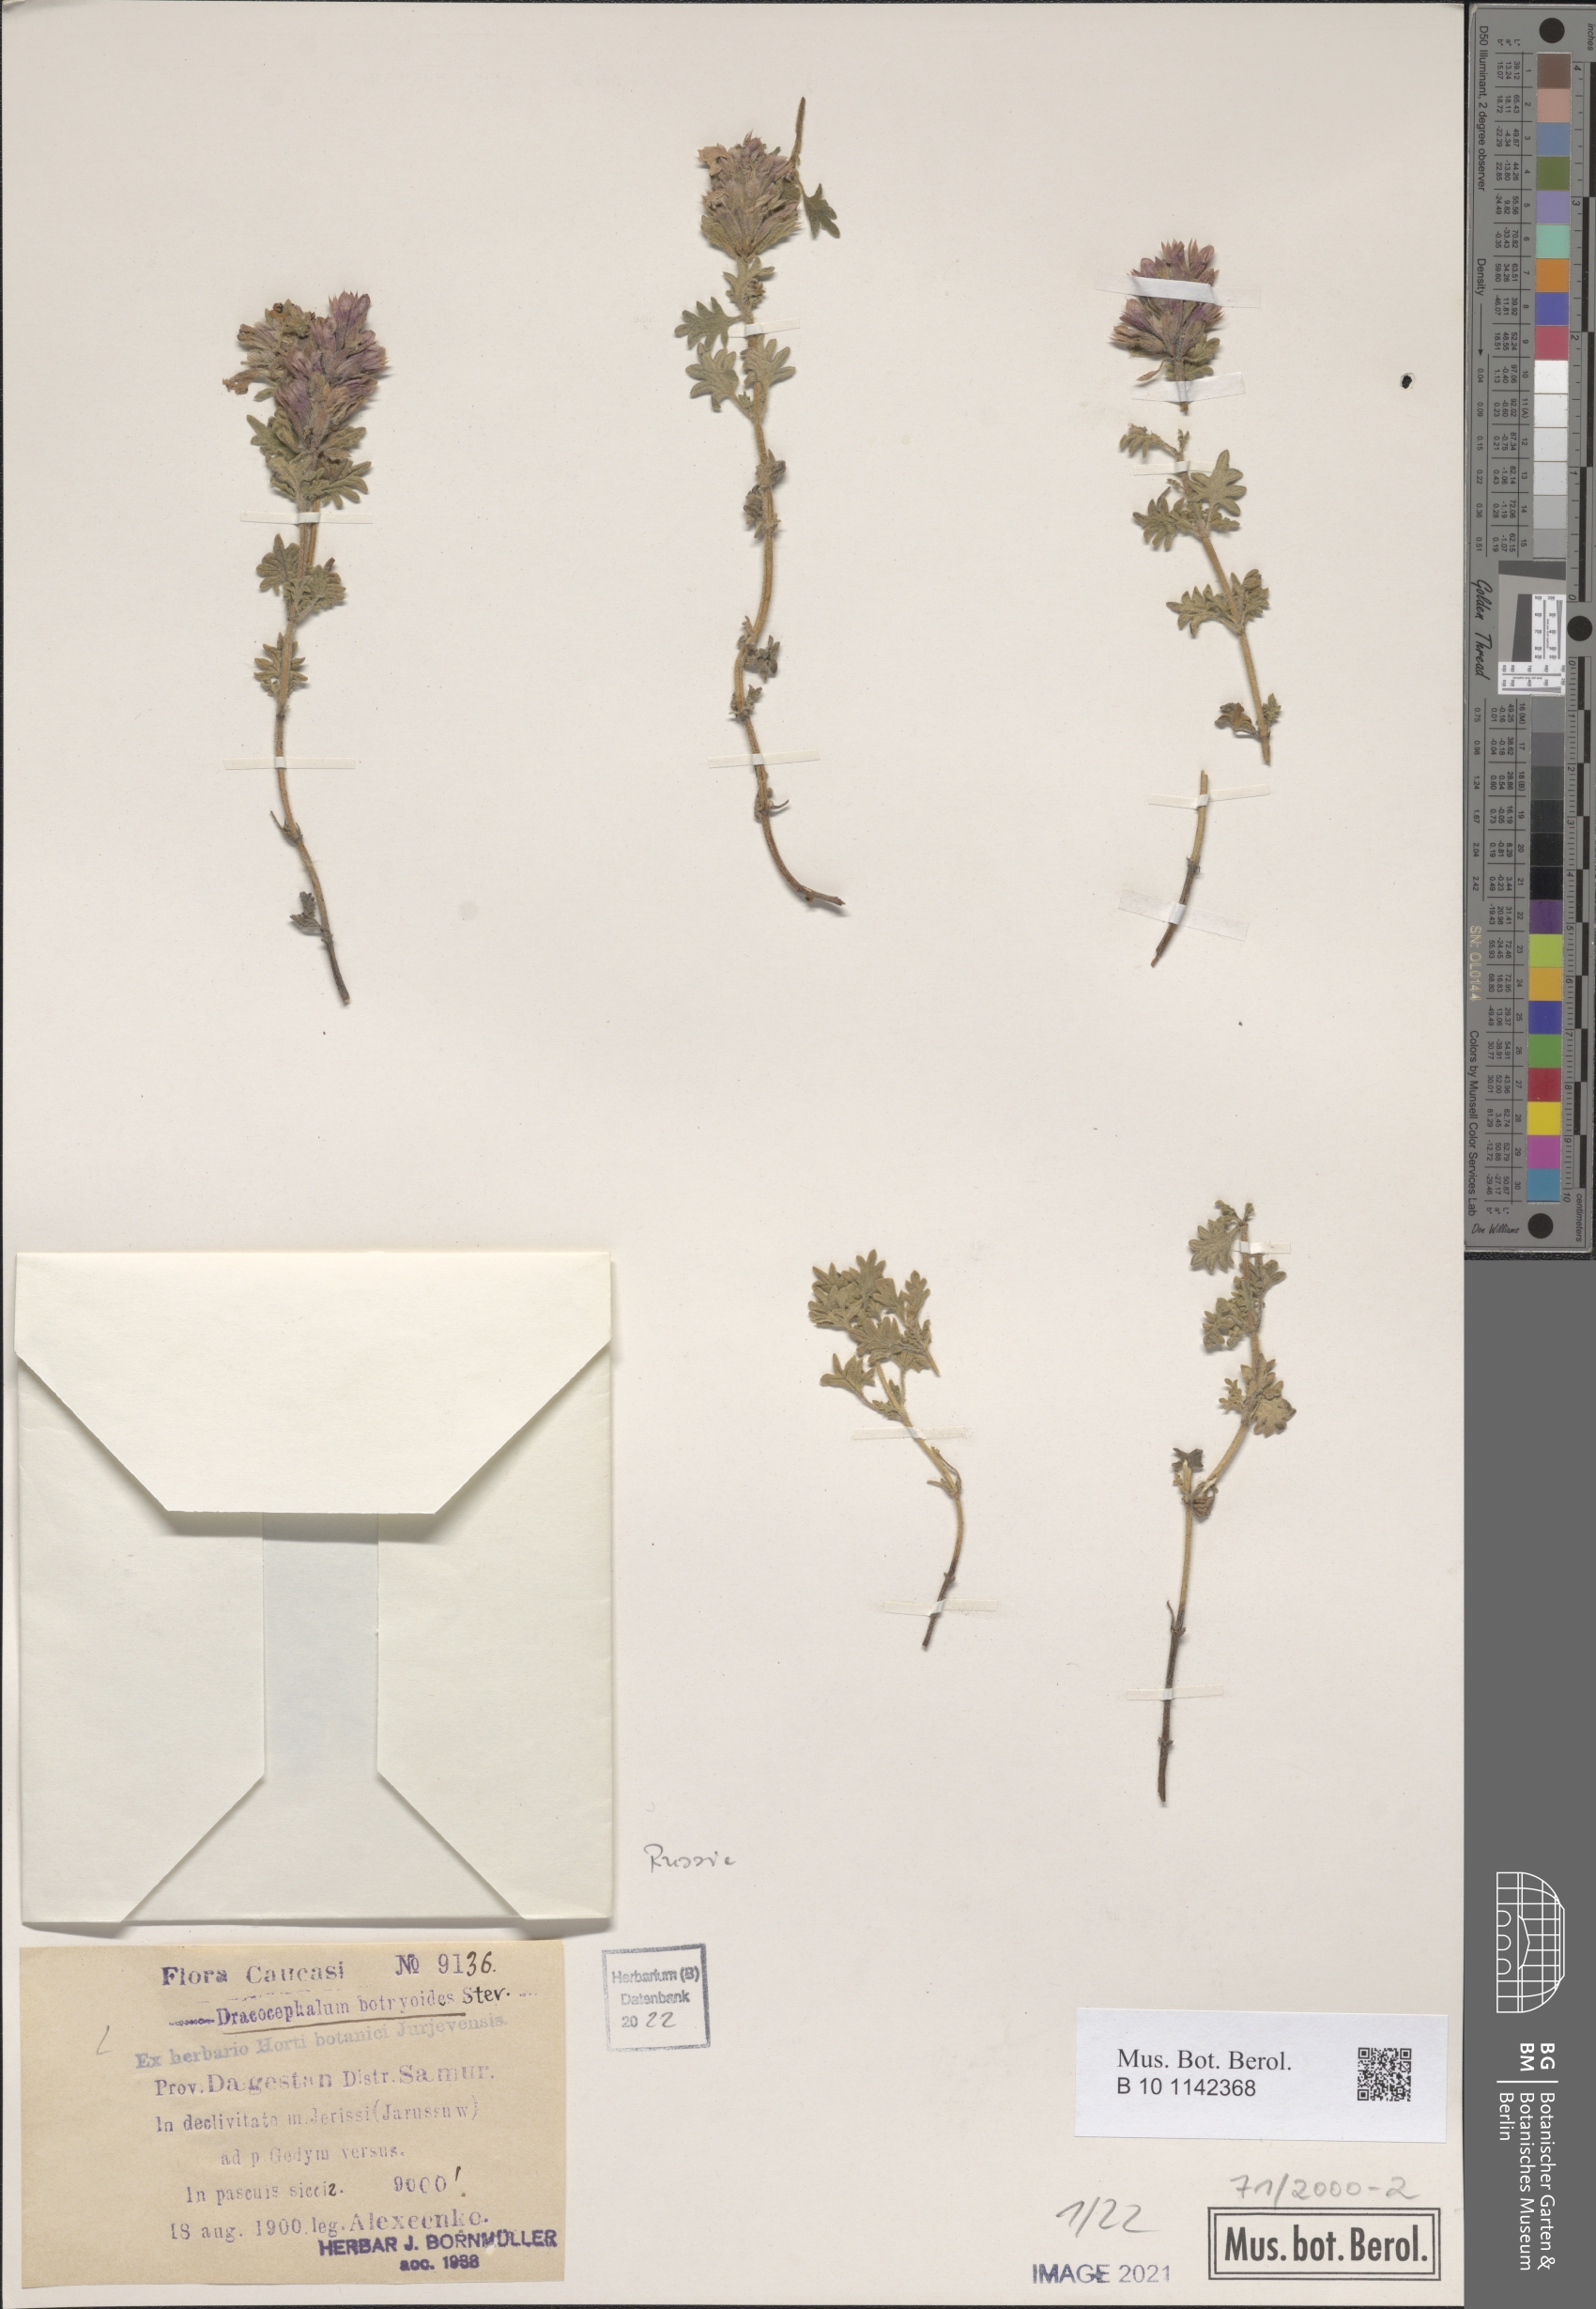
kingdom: Plantae
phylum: Tracheophyta
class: Magnoliopsida
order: Lamiales
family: Lamiaceae
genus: Dracocephalum
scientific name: Dracocephalum botryoides
